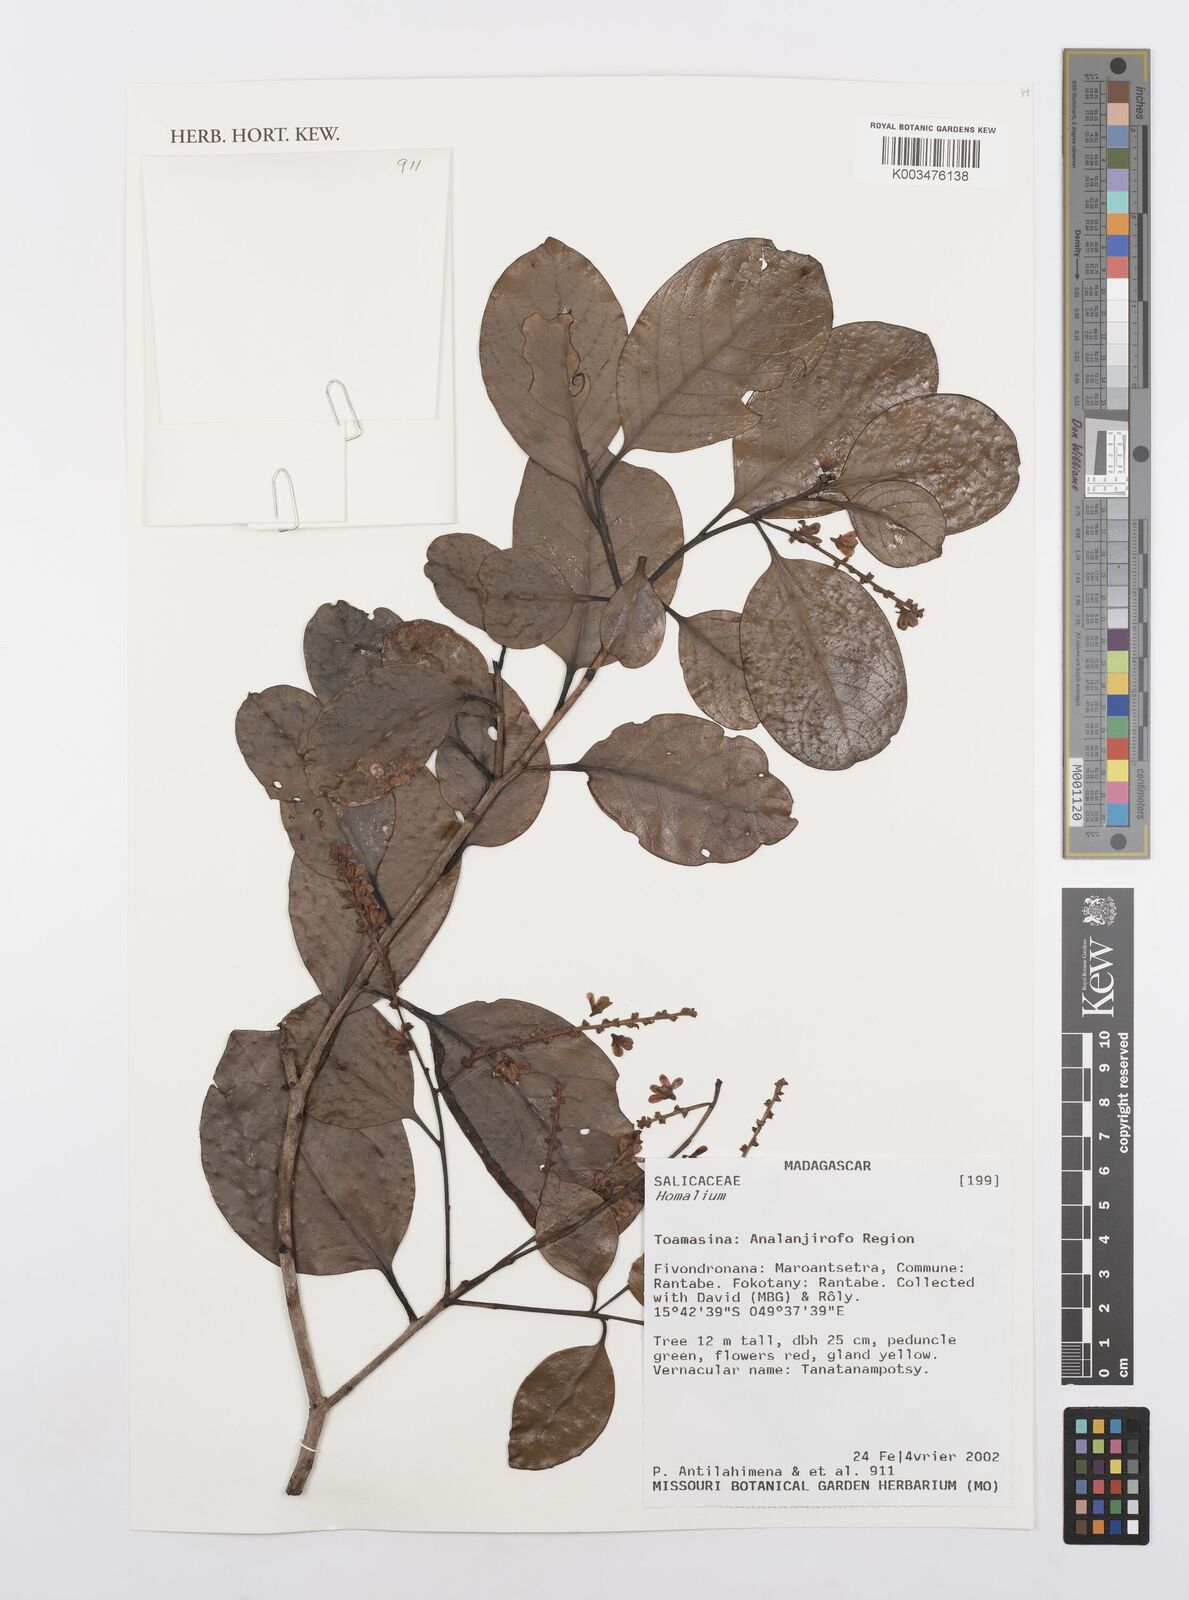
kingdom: Plantae
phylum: Tracheophyta
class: Magnoliopsida
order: Malpighiales
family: Salicaceae
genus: Homalium
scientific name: Homalium
